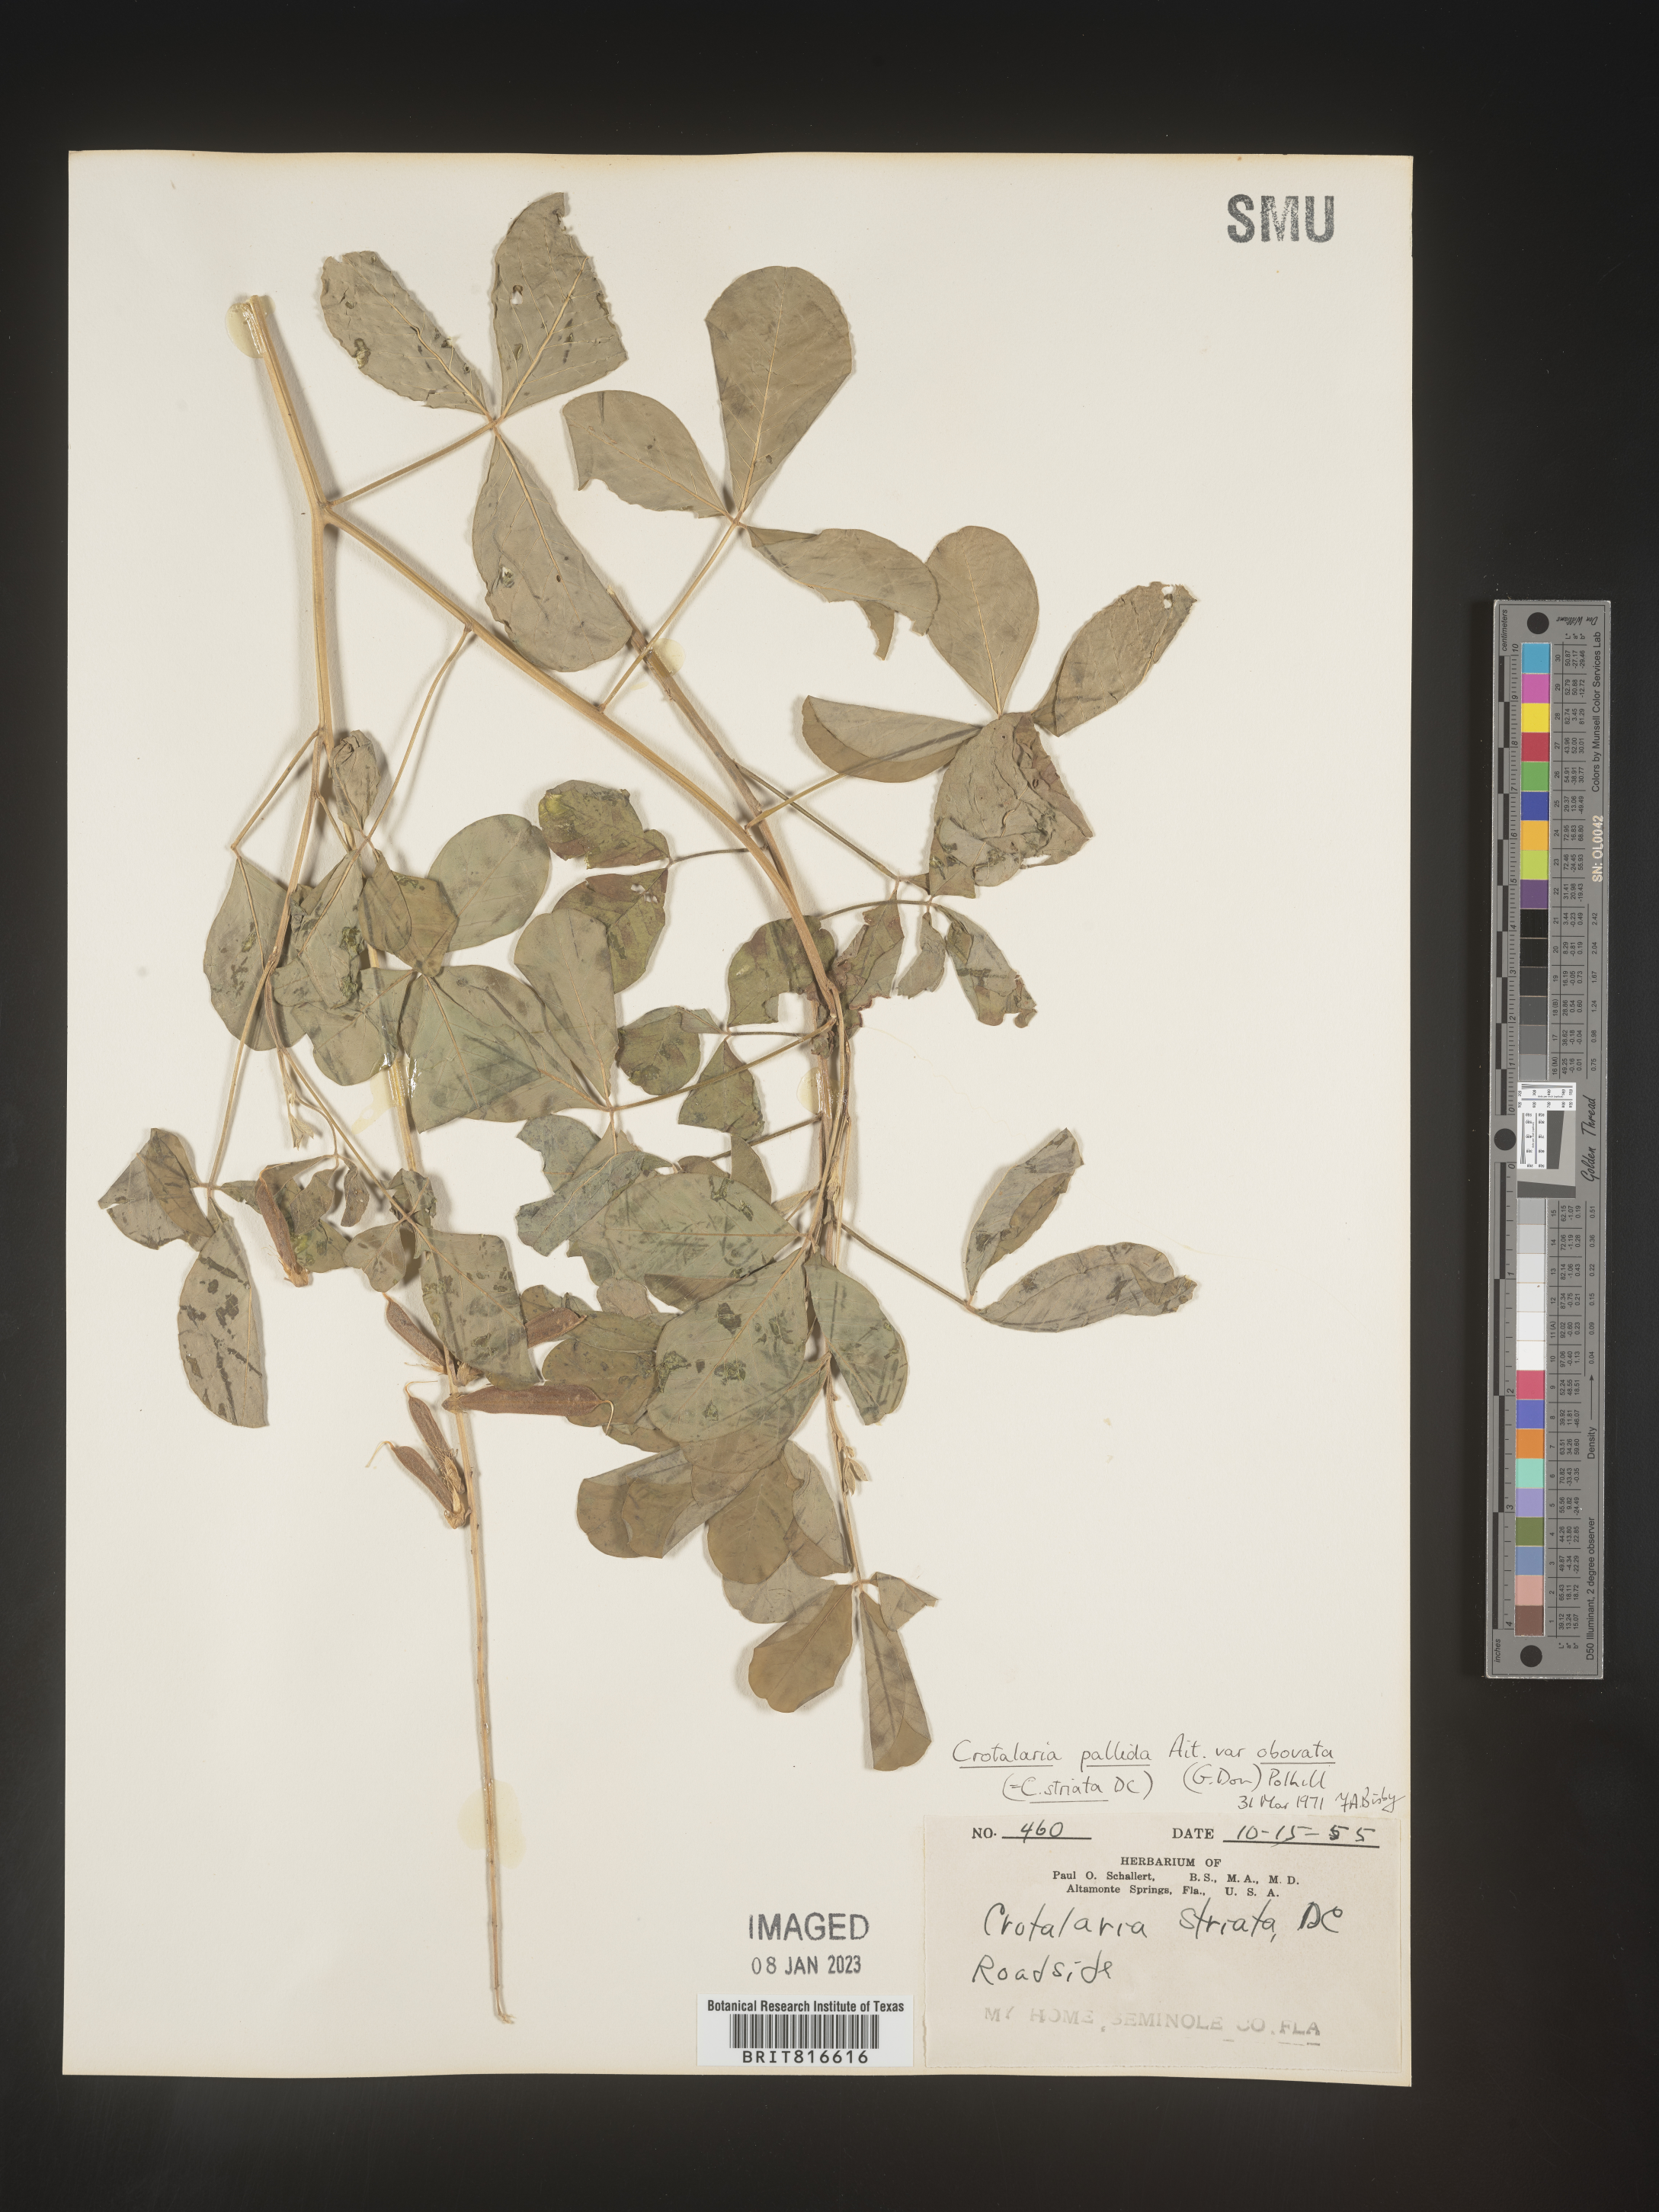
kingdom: Plantae
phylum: Tracheophyta
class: Magnoliopsida
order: Fabales
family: Fabaceae
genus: Crotalaria
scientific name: Crotalaria linifolia
